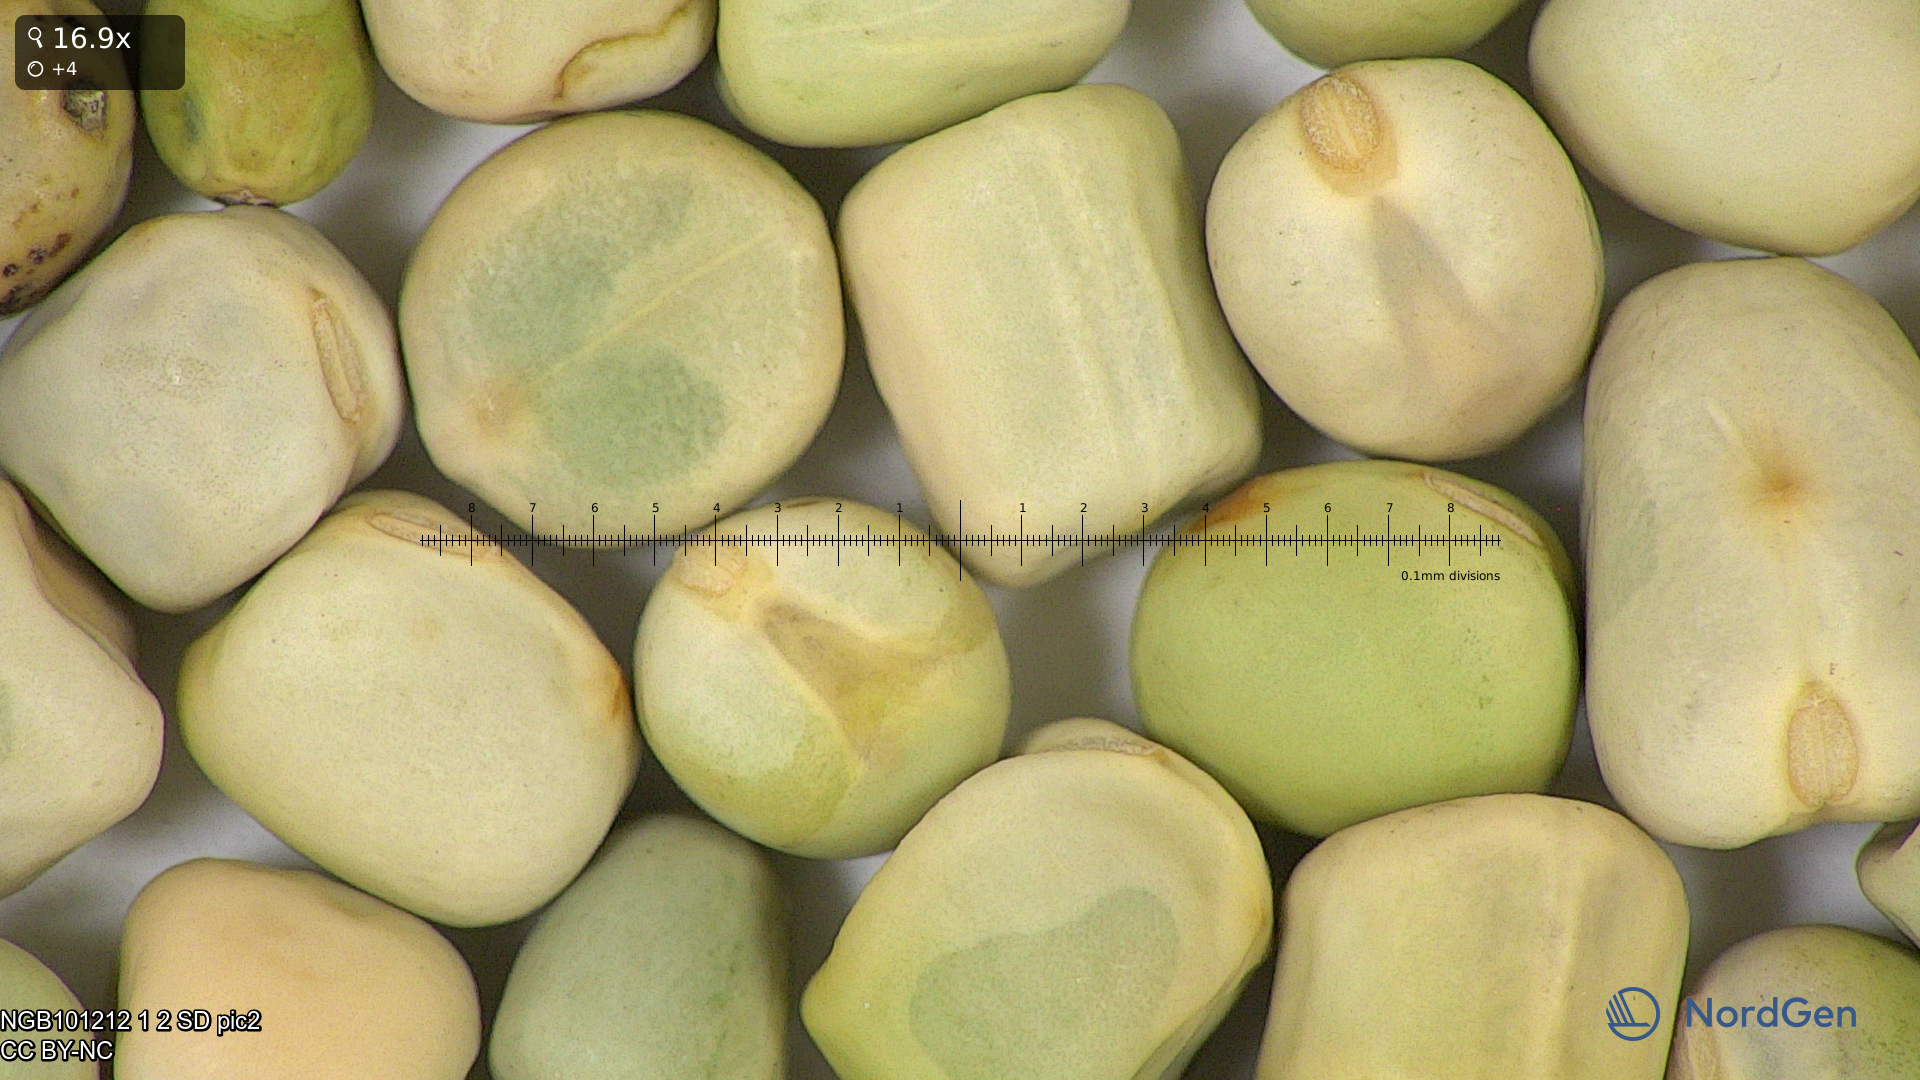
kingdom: Plantae
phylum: Tracheophyta
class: Magnoliopsida
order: Fabales
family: Fabaceae
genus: Lathyrus
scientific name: Lathyrus oleraceus
